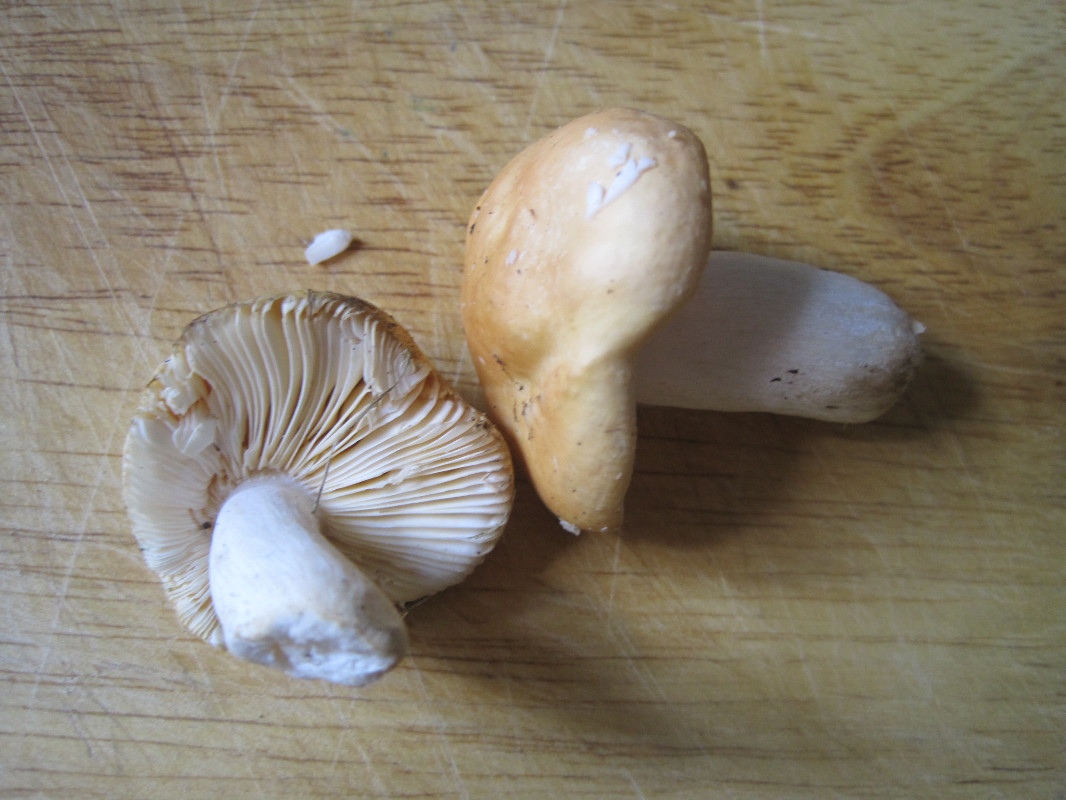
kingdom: Fungi
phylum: Basidiomycota
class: Agaricomycetes
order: Russulales
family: Russulaceae
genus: Russula
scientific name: Russula risigallina
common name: abrikos-skørhat
